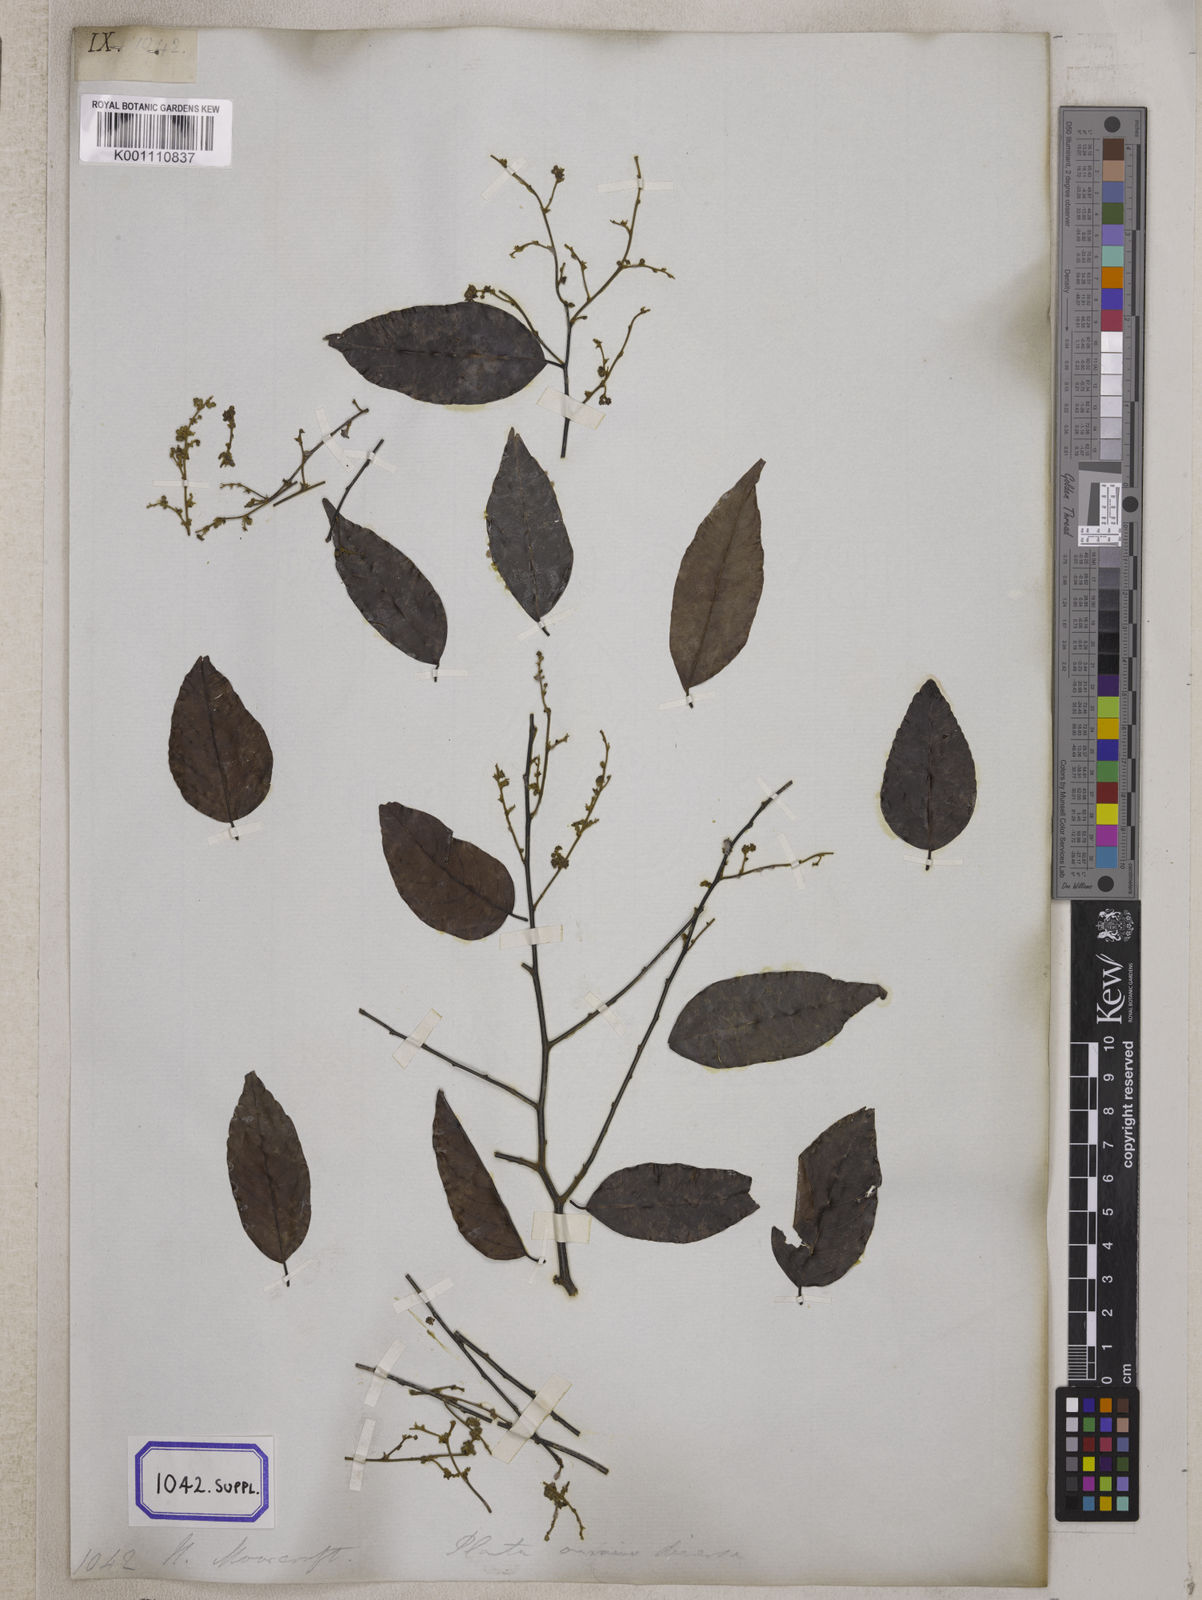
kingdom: Plantae
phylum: Tracheophyta
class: Magnoliopsida
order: Brassicales
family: Salvadoraceae
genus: Salvadora
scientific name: Salvadora persica
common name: Toothbrushtree
